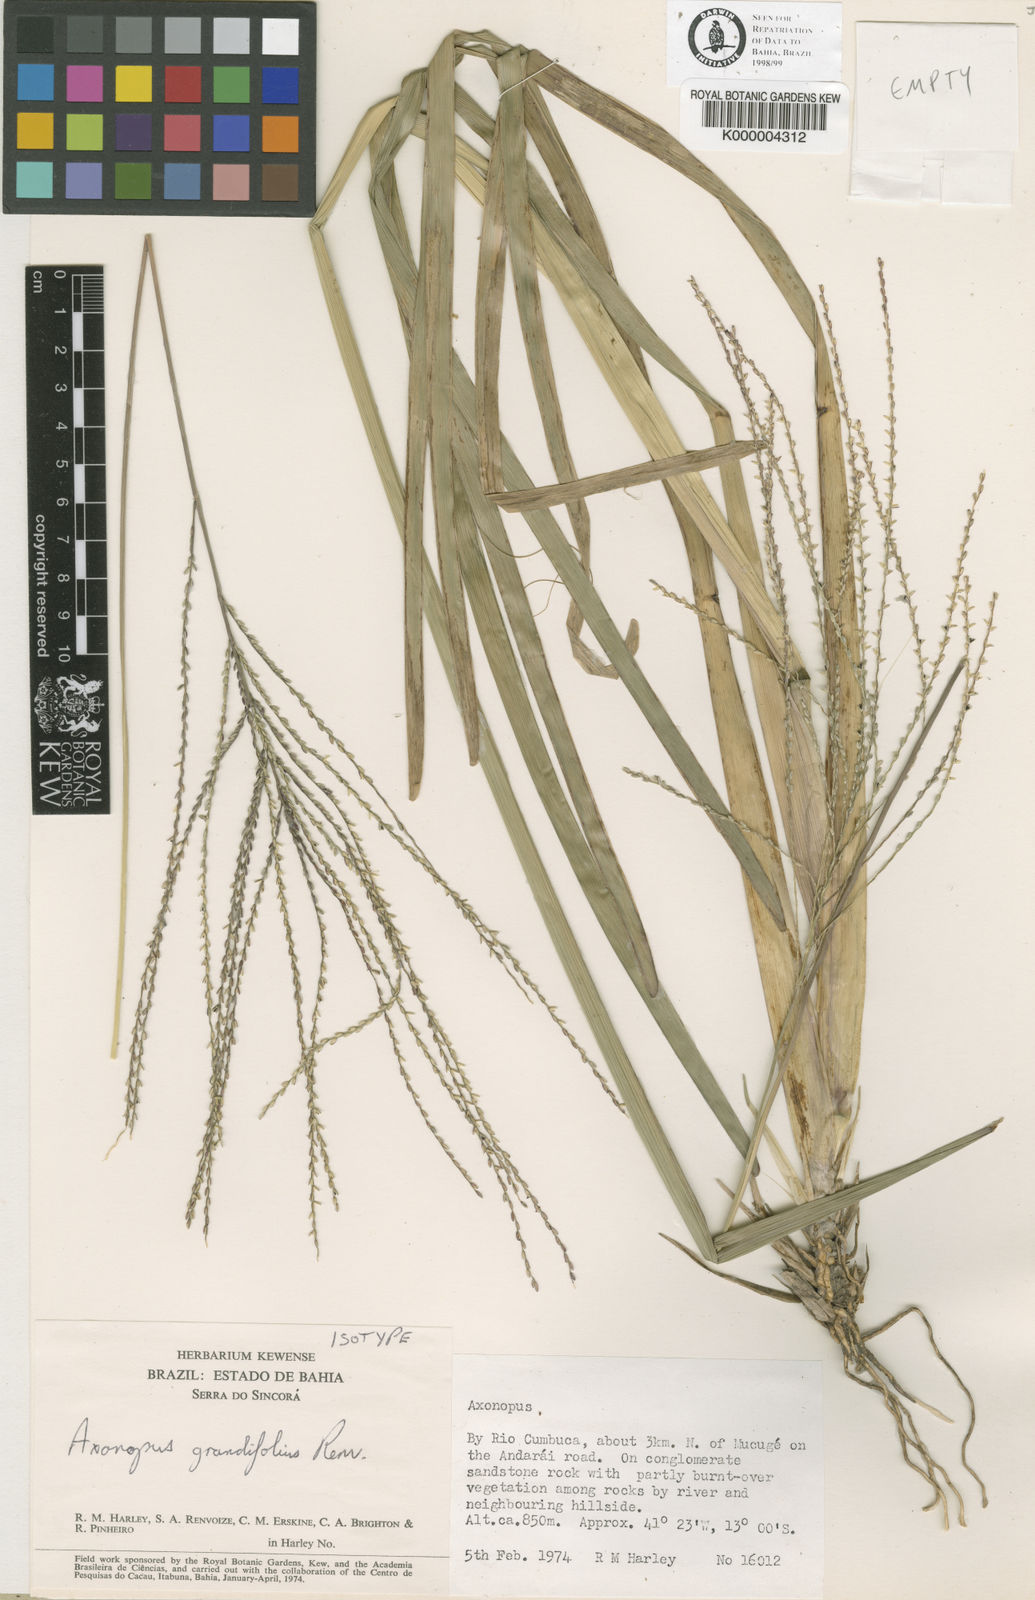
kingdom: Plantae
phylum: Tracheophyta
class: Liliopsida
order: Poales
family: Poaceae
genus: Axonopus
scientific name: Axonopus grandifolius
